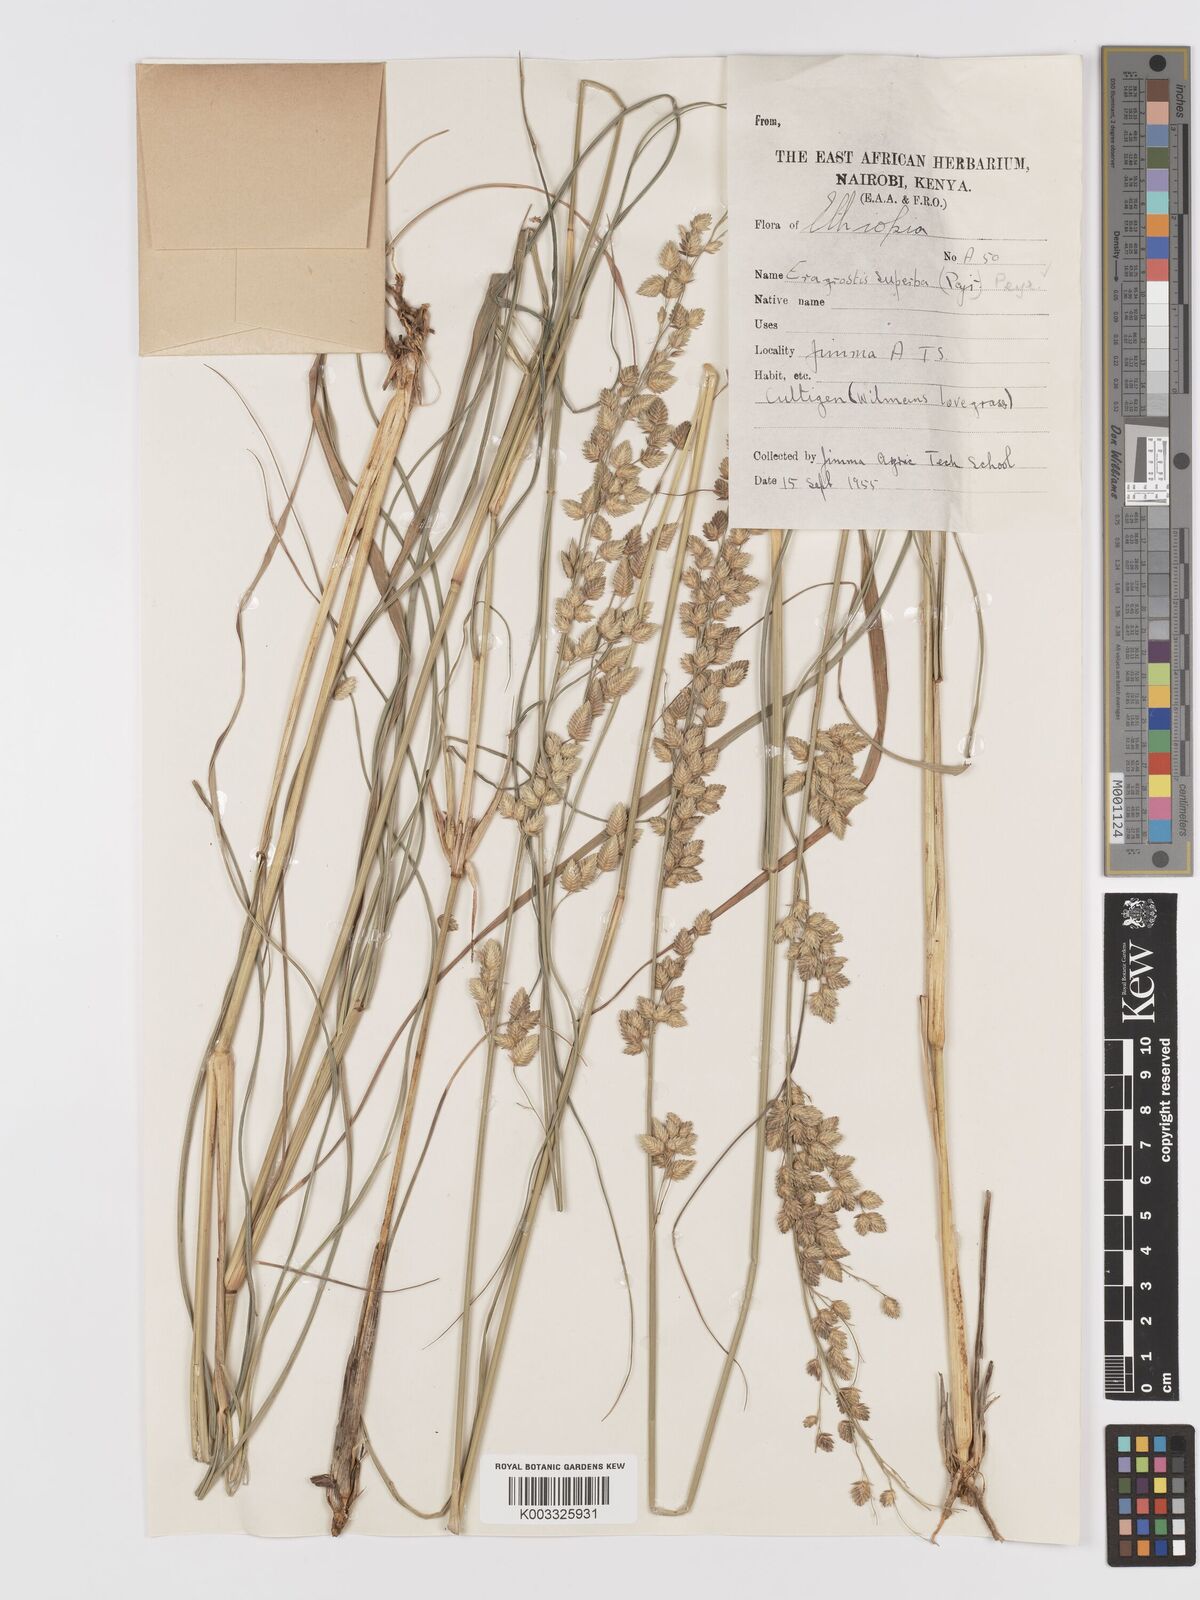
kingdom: Plantae
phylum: Tracheophyta
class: Liliopsida
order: Poales
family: Poaceae
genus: Eragrostis
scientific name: Eragrostis superba
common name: Wilman lovegrass
